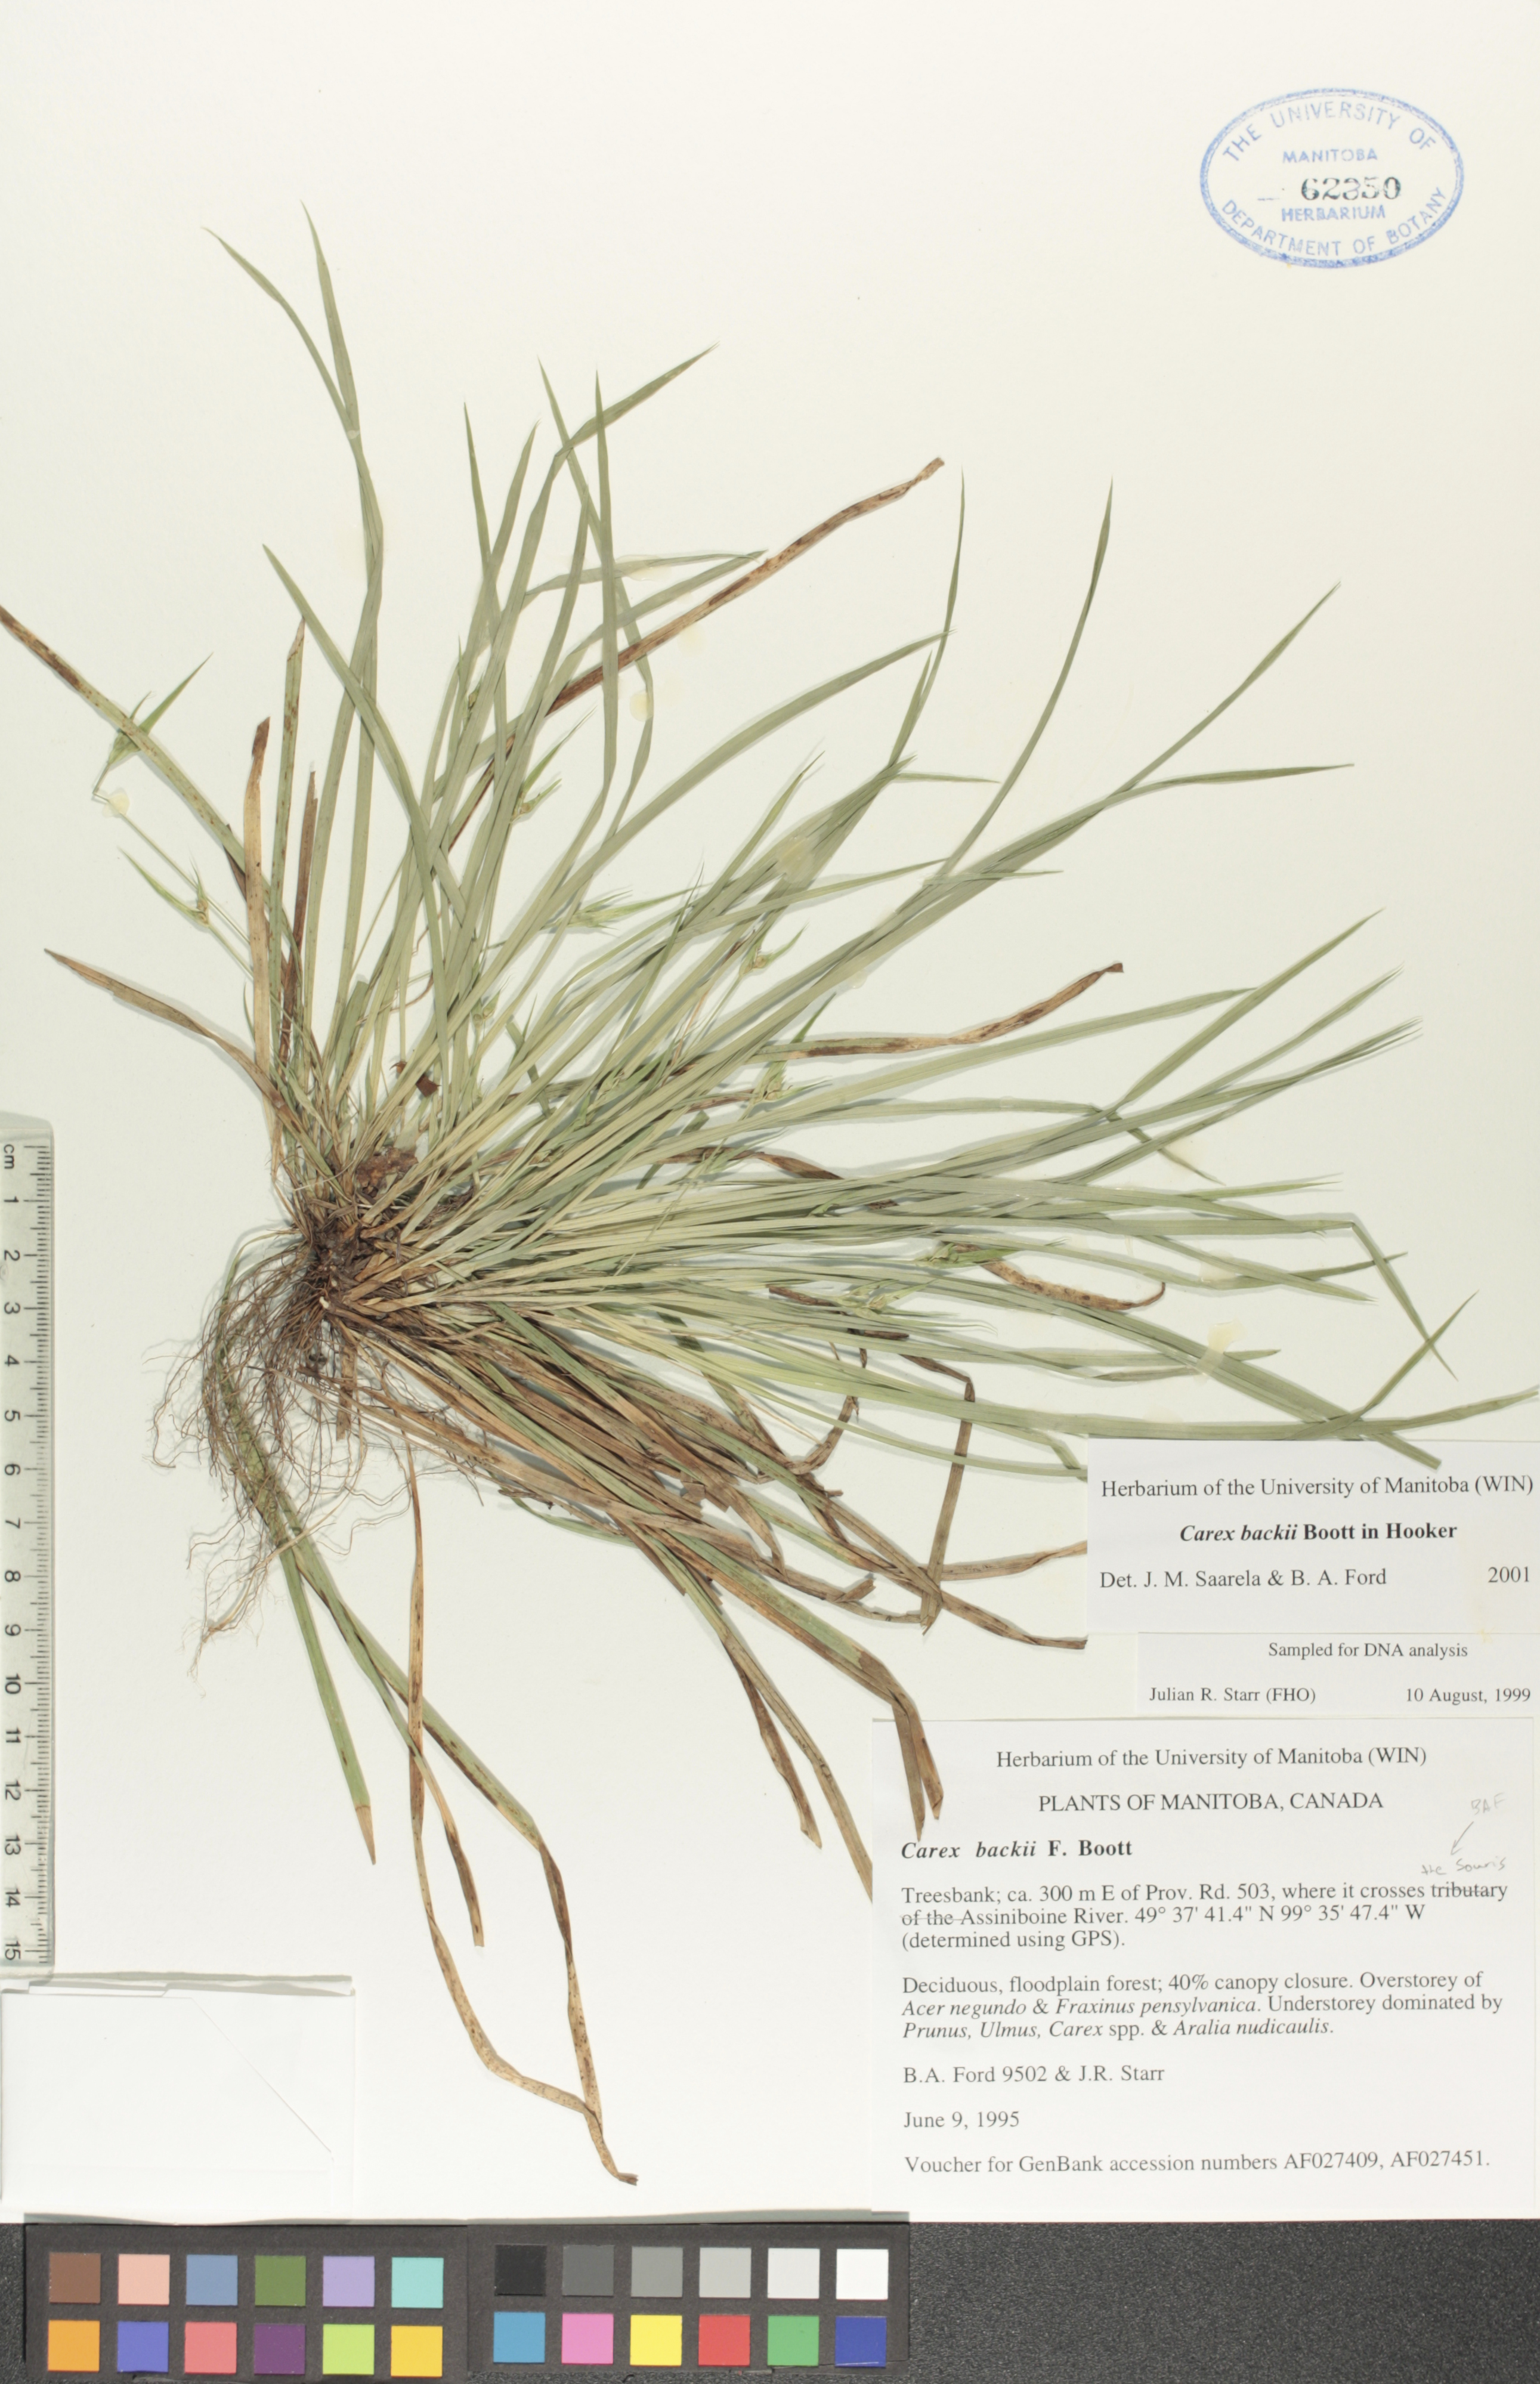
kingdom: Plantae
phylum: Tracheophyta
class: Liliopsida
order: Poales
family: Cyperaceae
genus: Carex
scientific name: Carex backii
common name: Back's sedge
